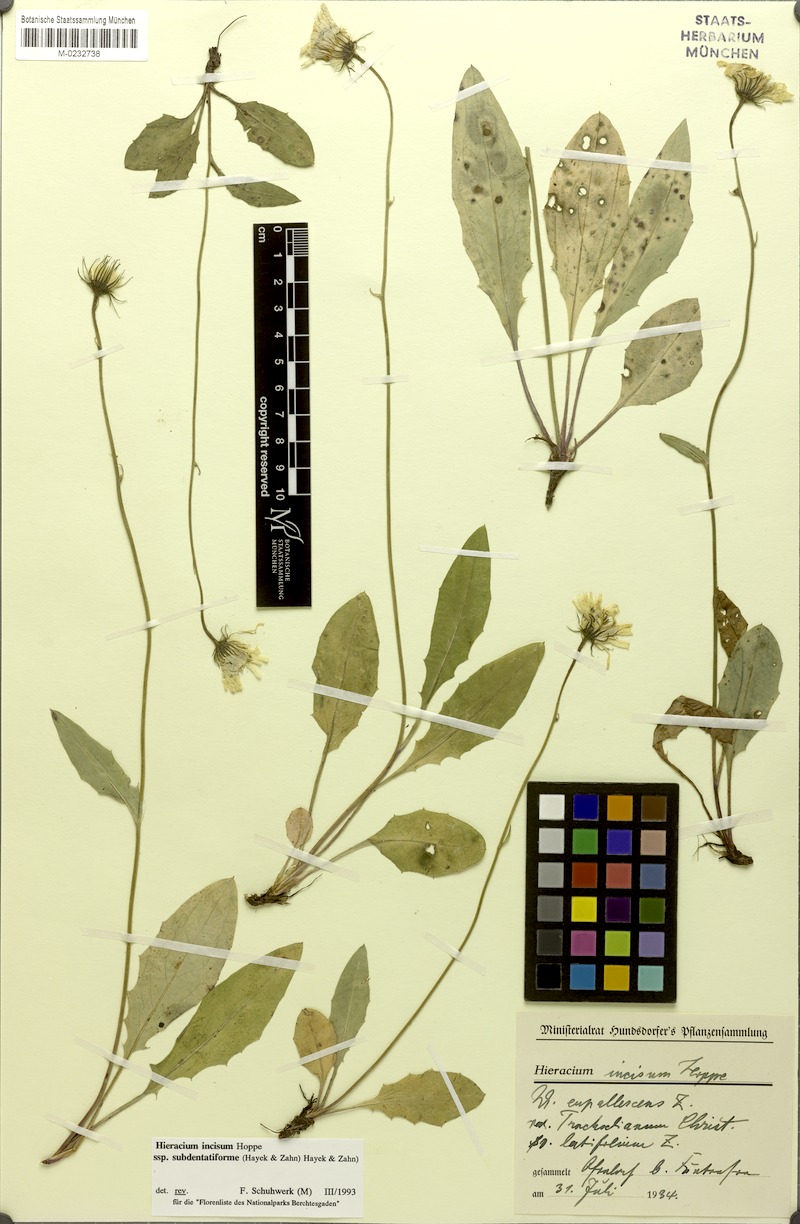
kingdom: Plantae
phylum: Tracheophyta
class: Magnoliopsida
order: Asterales
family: Asteraceae
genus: Hieracium
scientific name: Hieracium incisum
